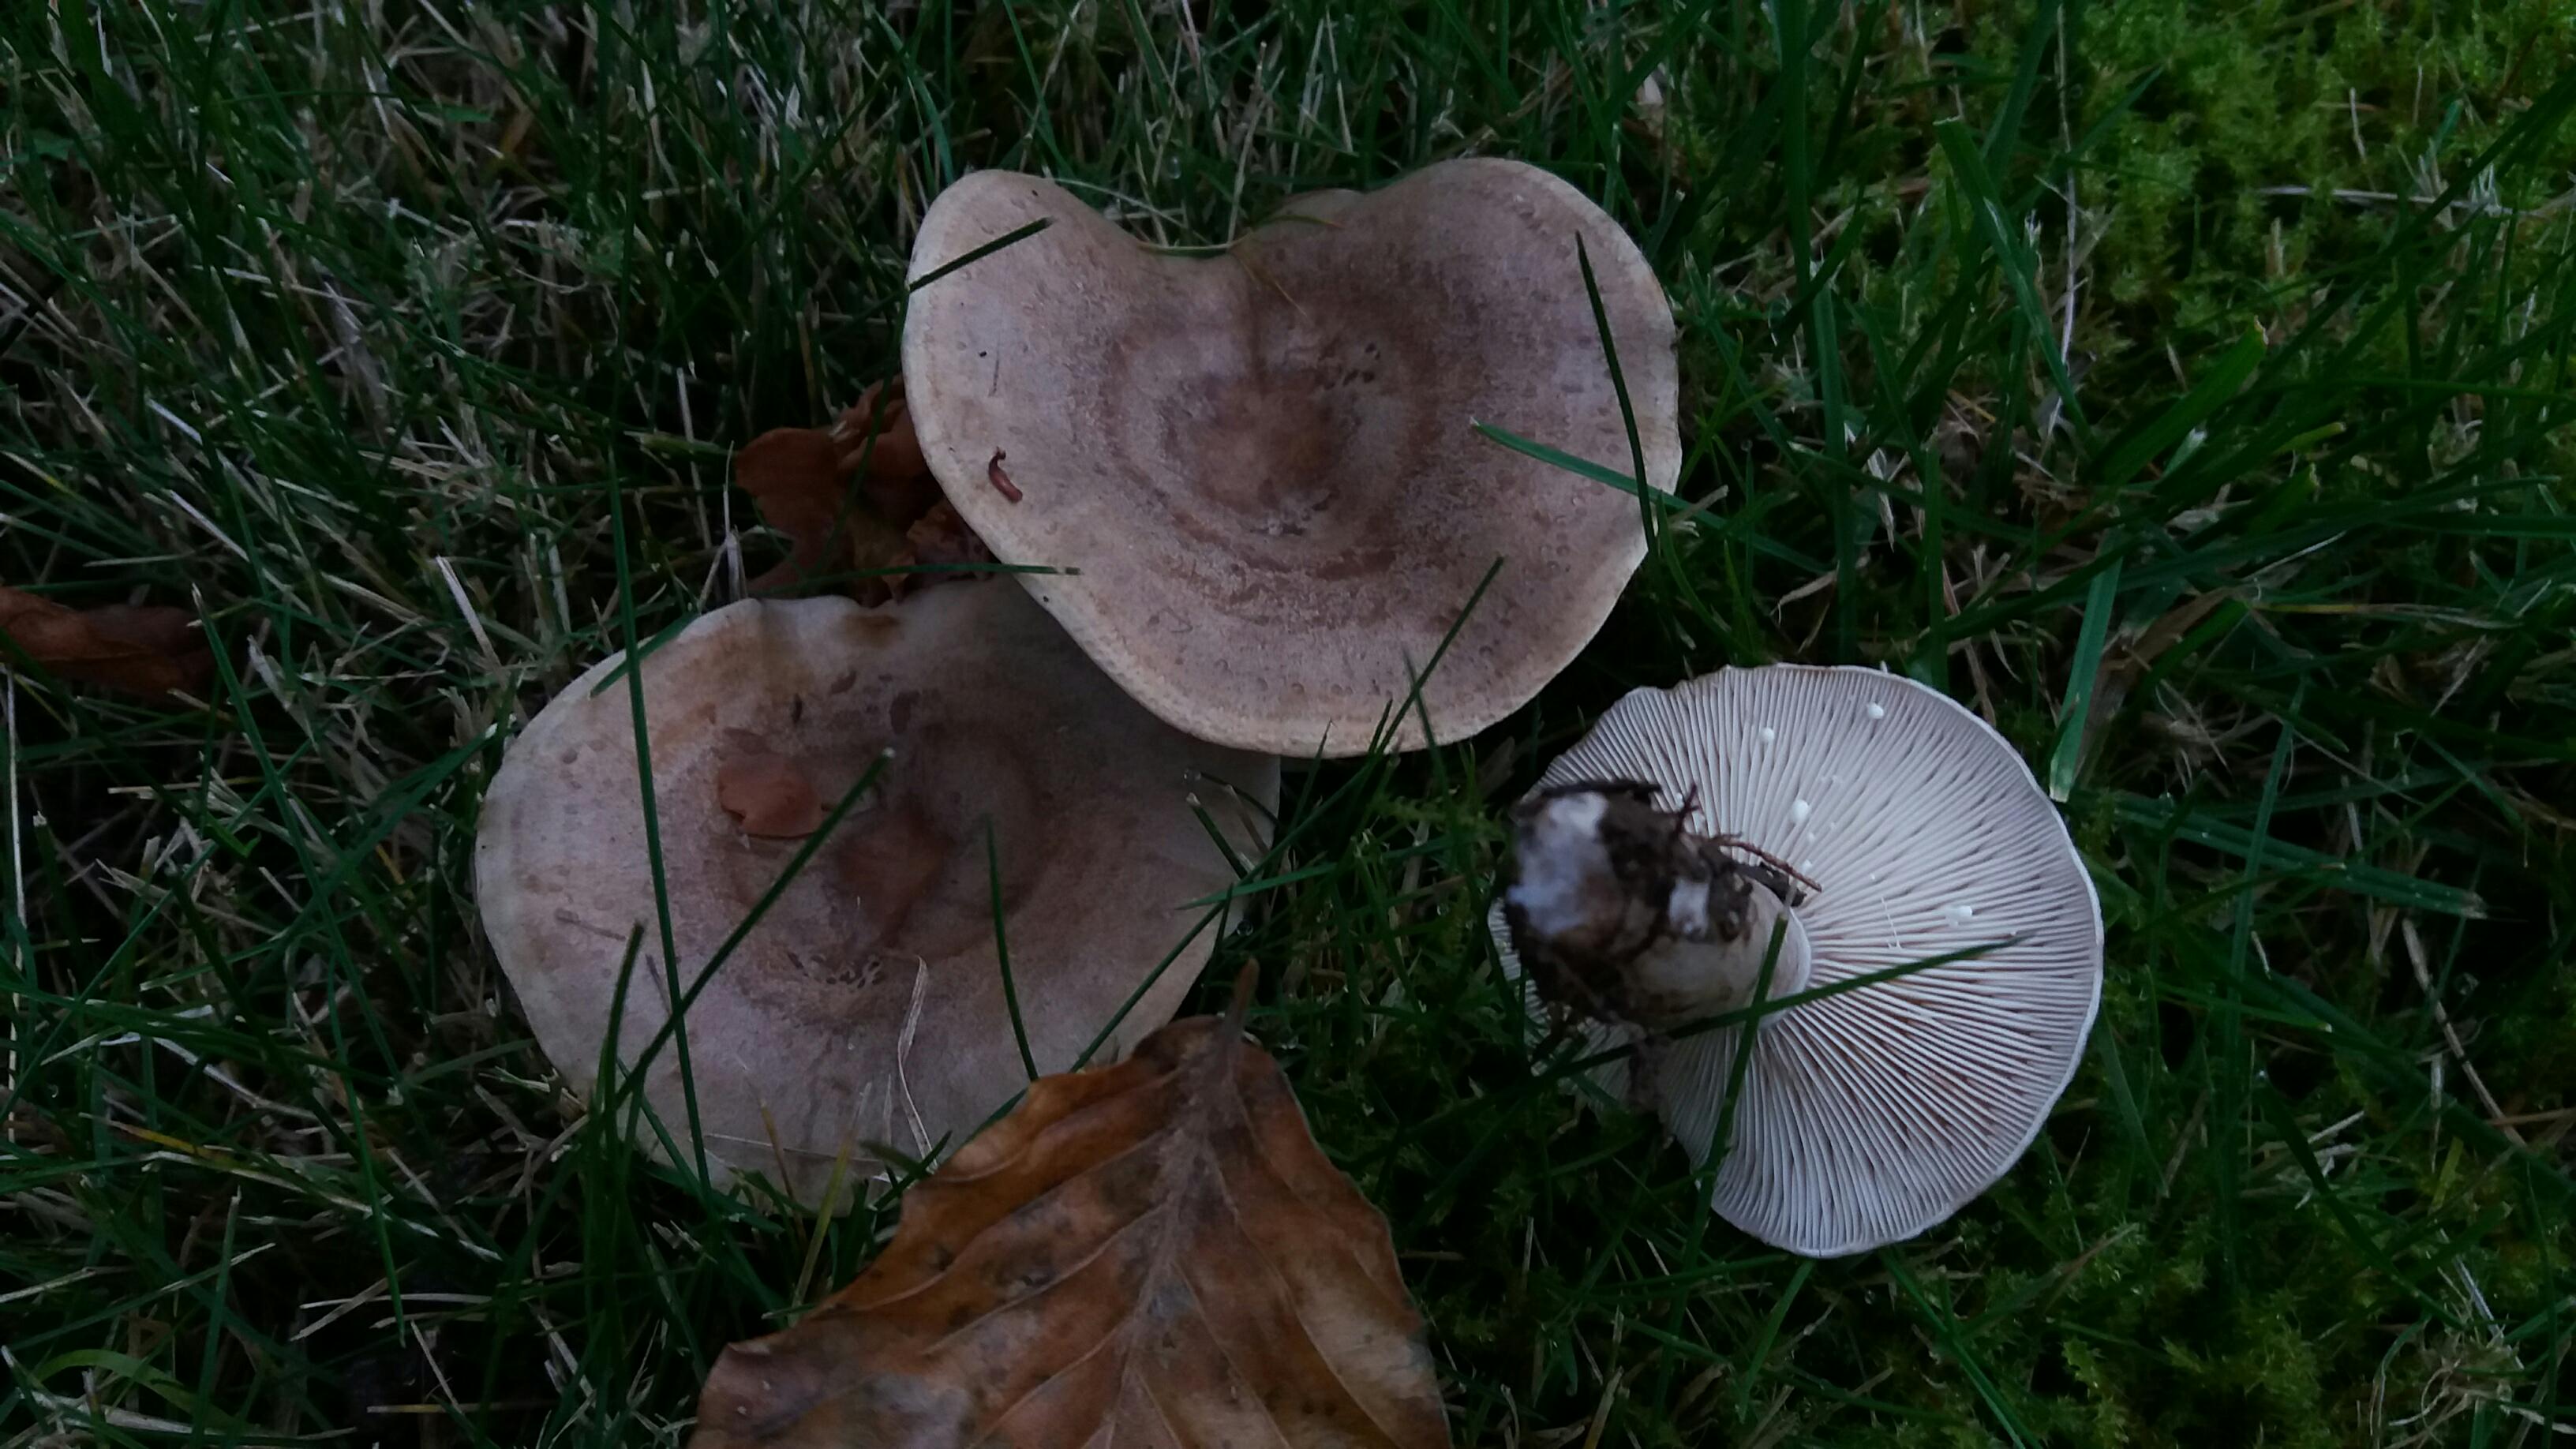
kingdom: Fungi
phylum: Basidiomycota
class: Agaricomycetes
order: Russulales
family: Russulaceae
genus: Lactarius
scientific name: Lactarius fluens
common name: lysrandet mælkehat
